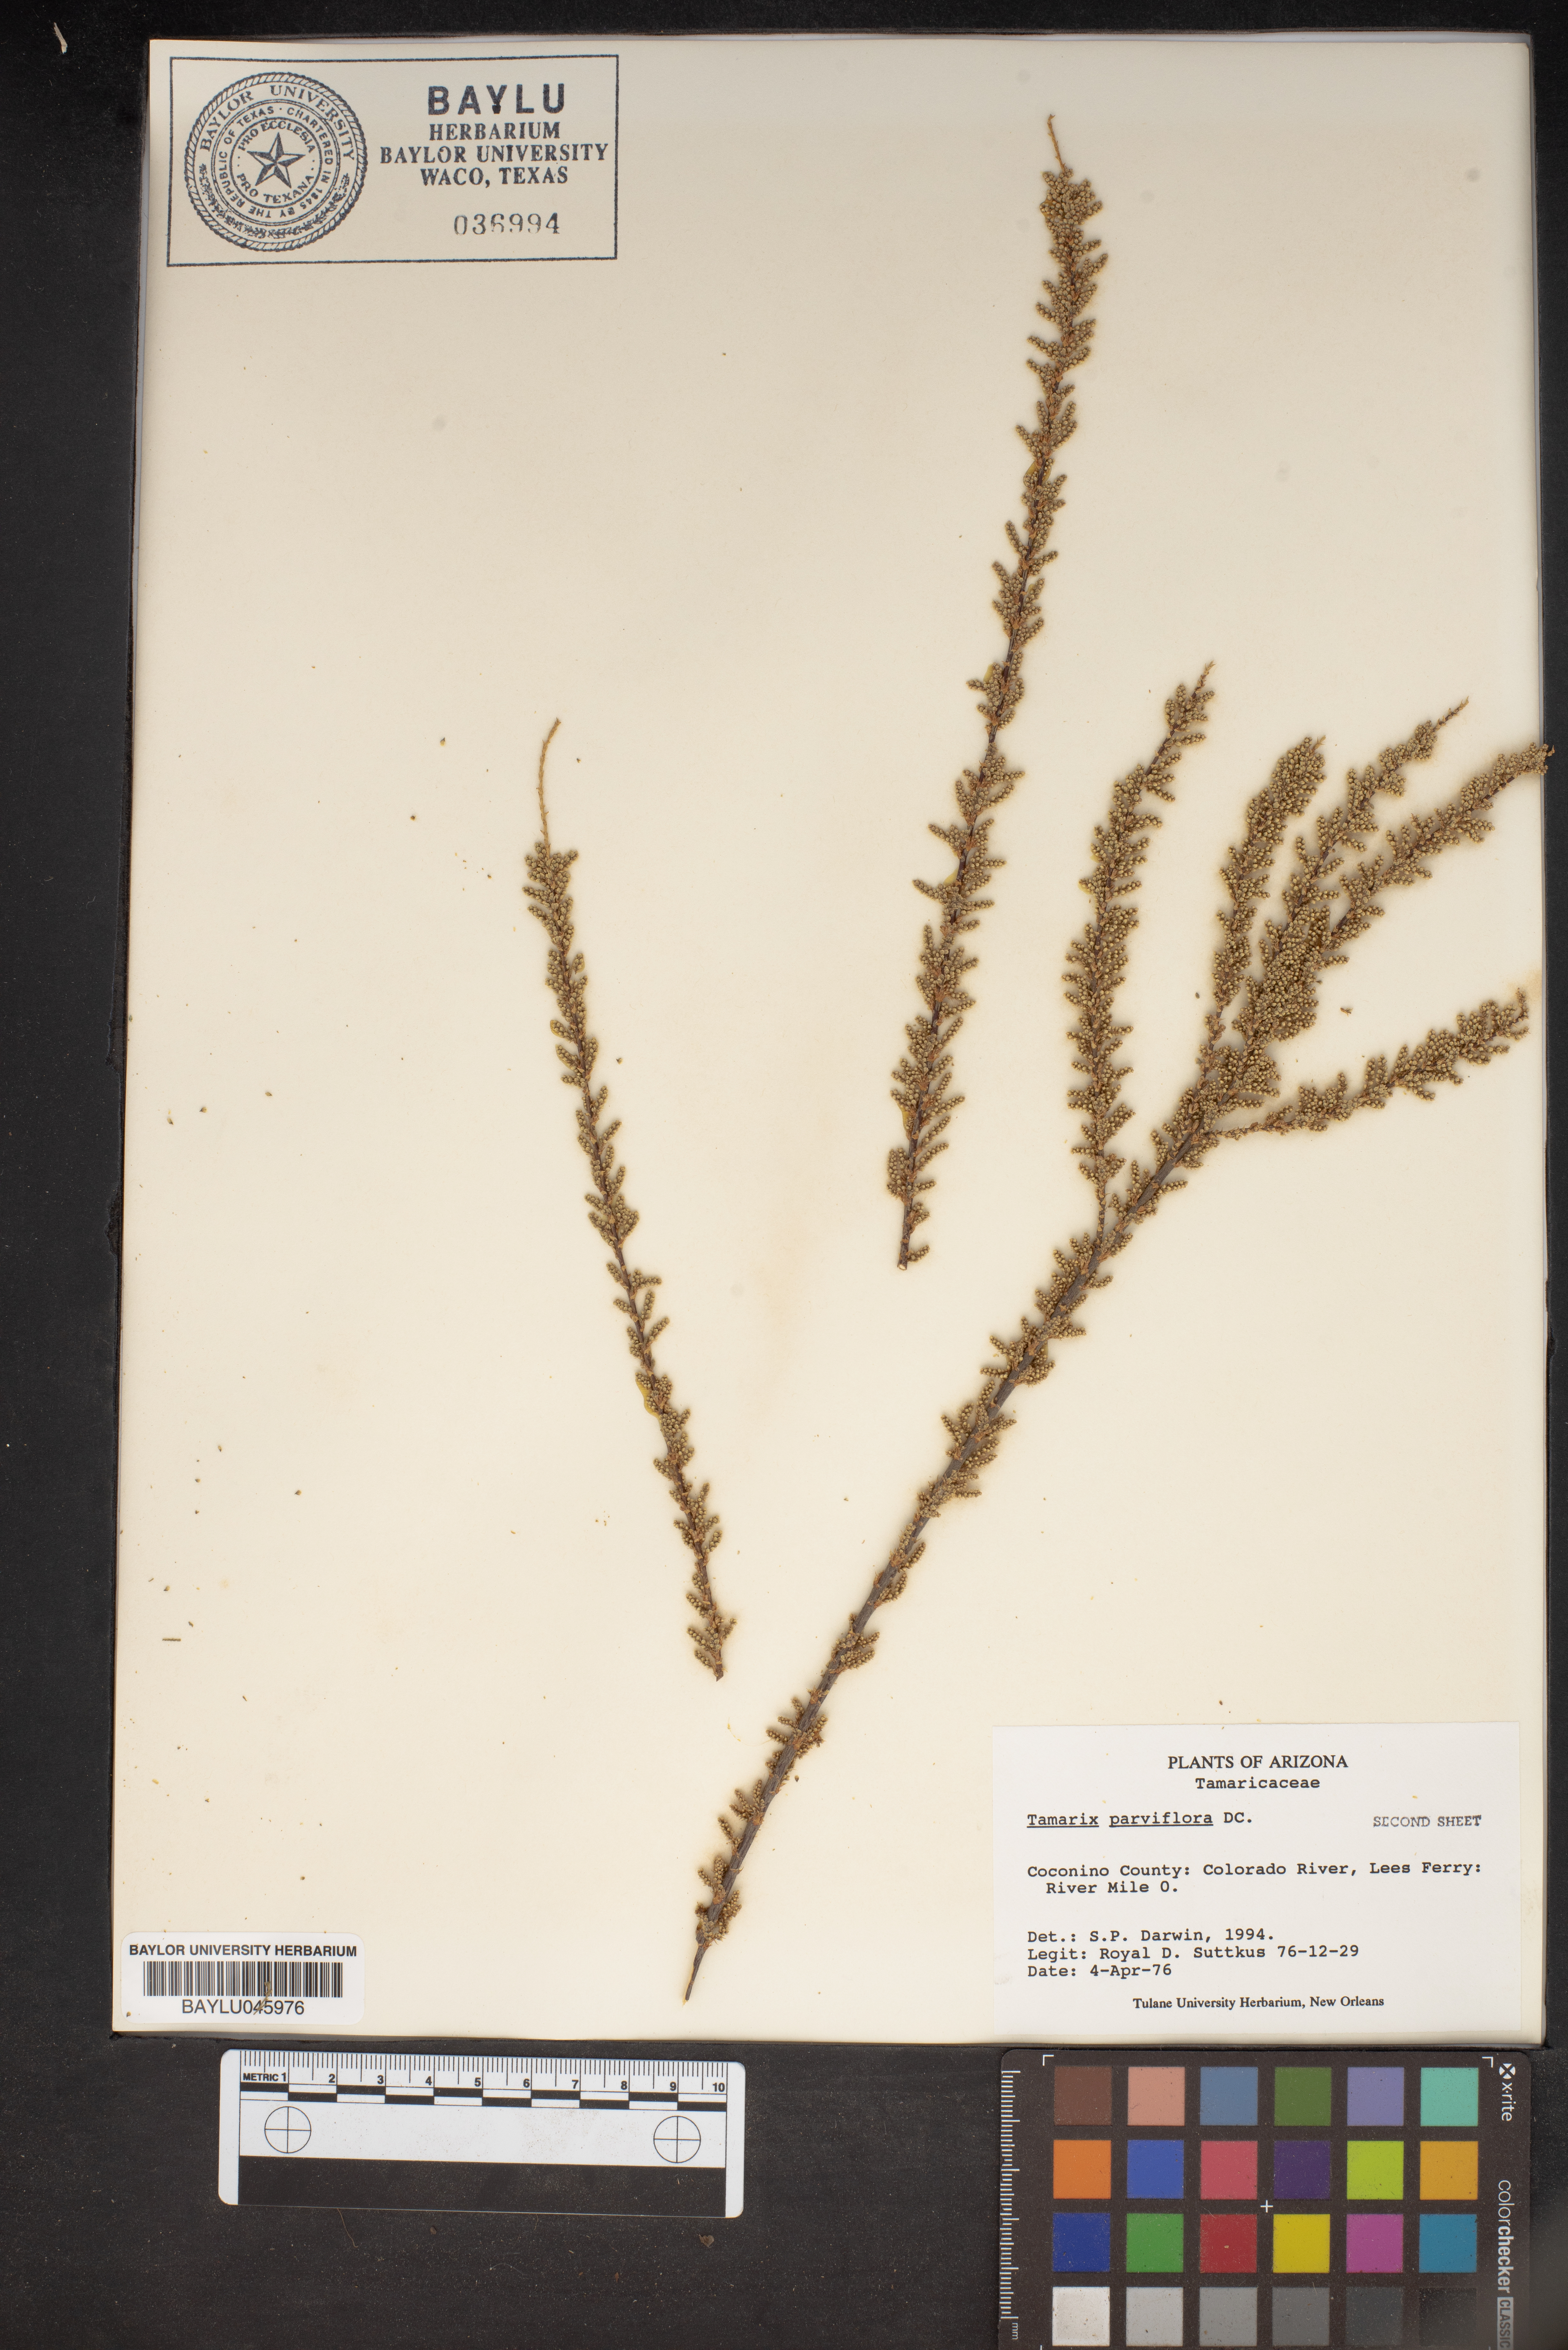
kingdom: Plantae
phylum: Tracheophyta
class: Magnoliopsida
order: Caryophyllales
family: Tamaricaceae
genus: Tamarix
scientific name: Tamarix parviflora
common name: Smallflower tamarisk
